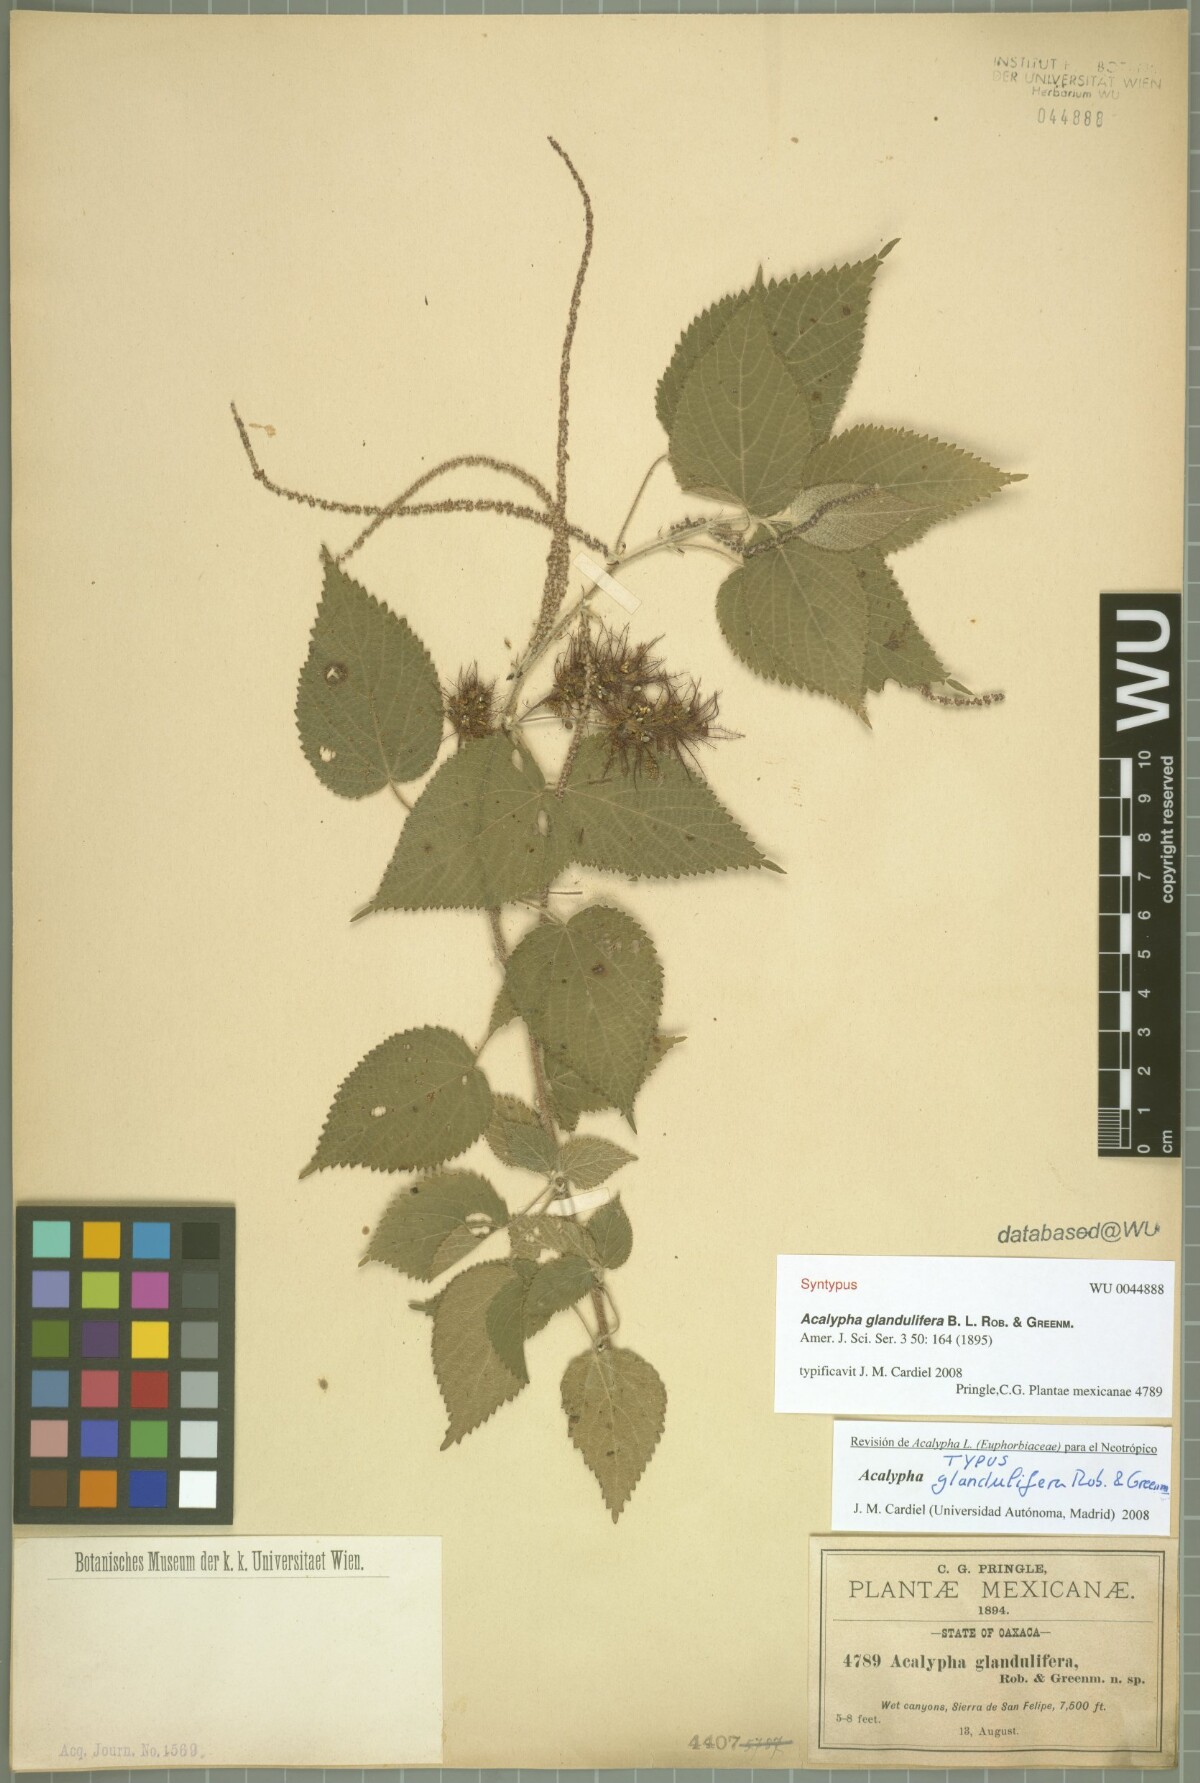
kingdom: Plantae
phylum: Tracheophyta
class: Magnoliopsida
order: Malpighiales
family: Euphorbiaceae
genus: Acalypha
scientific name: Acalypha trachyloba
